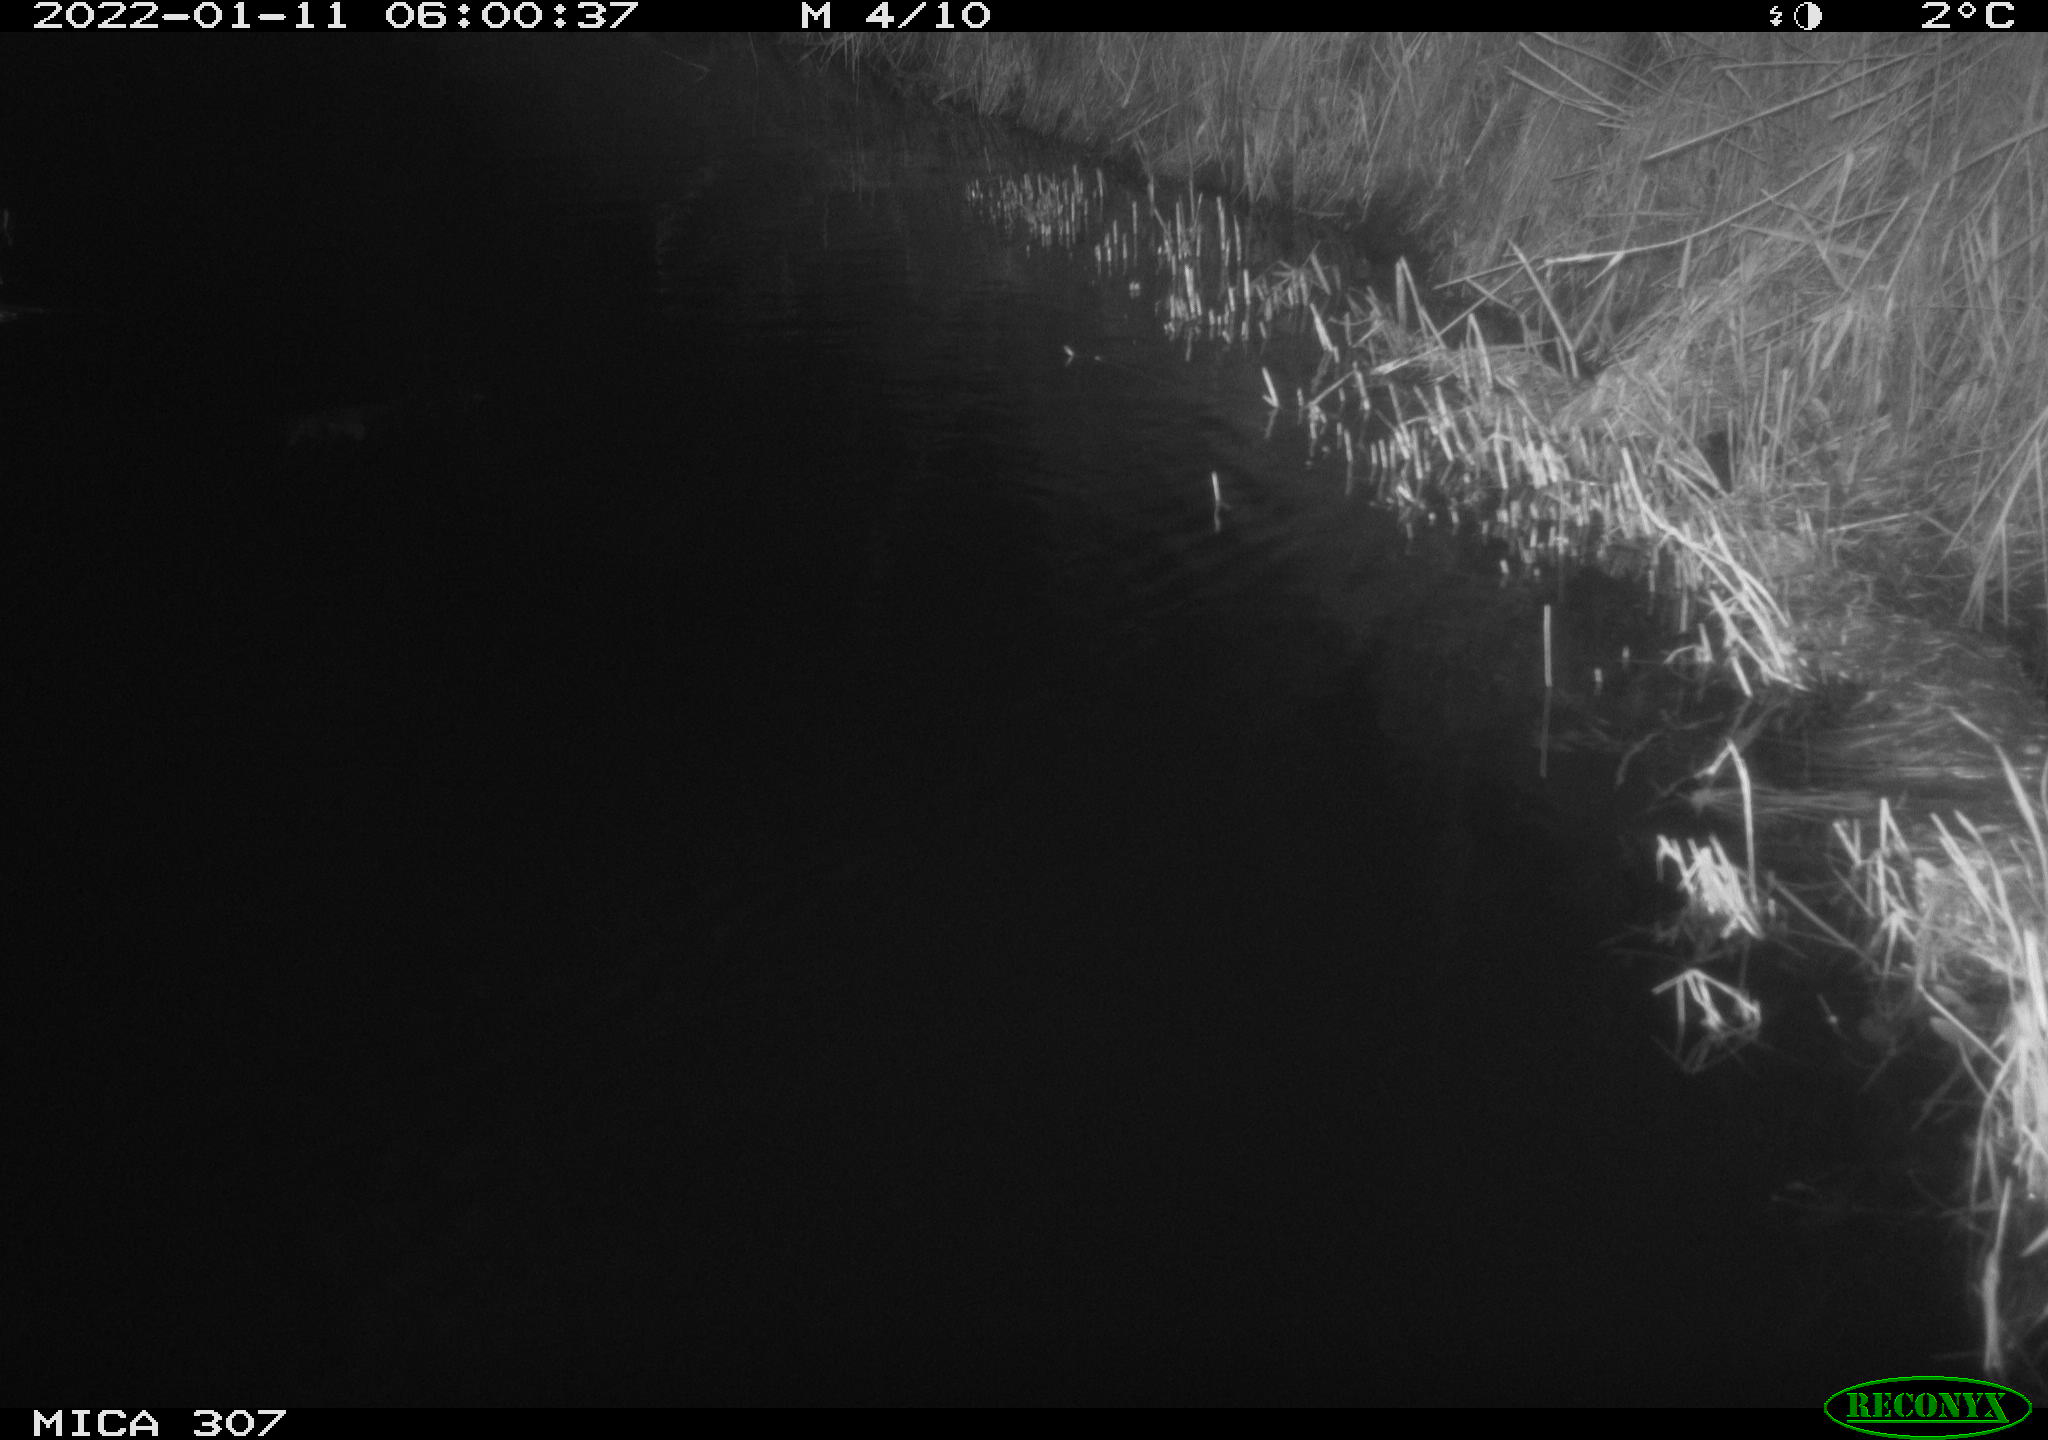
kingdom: Animalia
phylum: Chordata
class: Mammalia
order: Rodentia
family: Muridae
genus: Rattus
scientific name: Rattus norvegicus
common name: Brown rat
